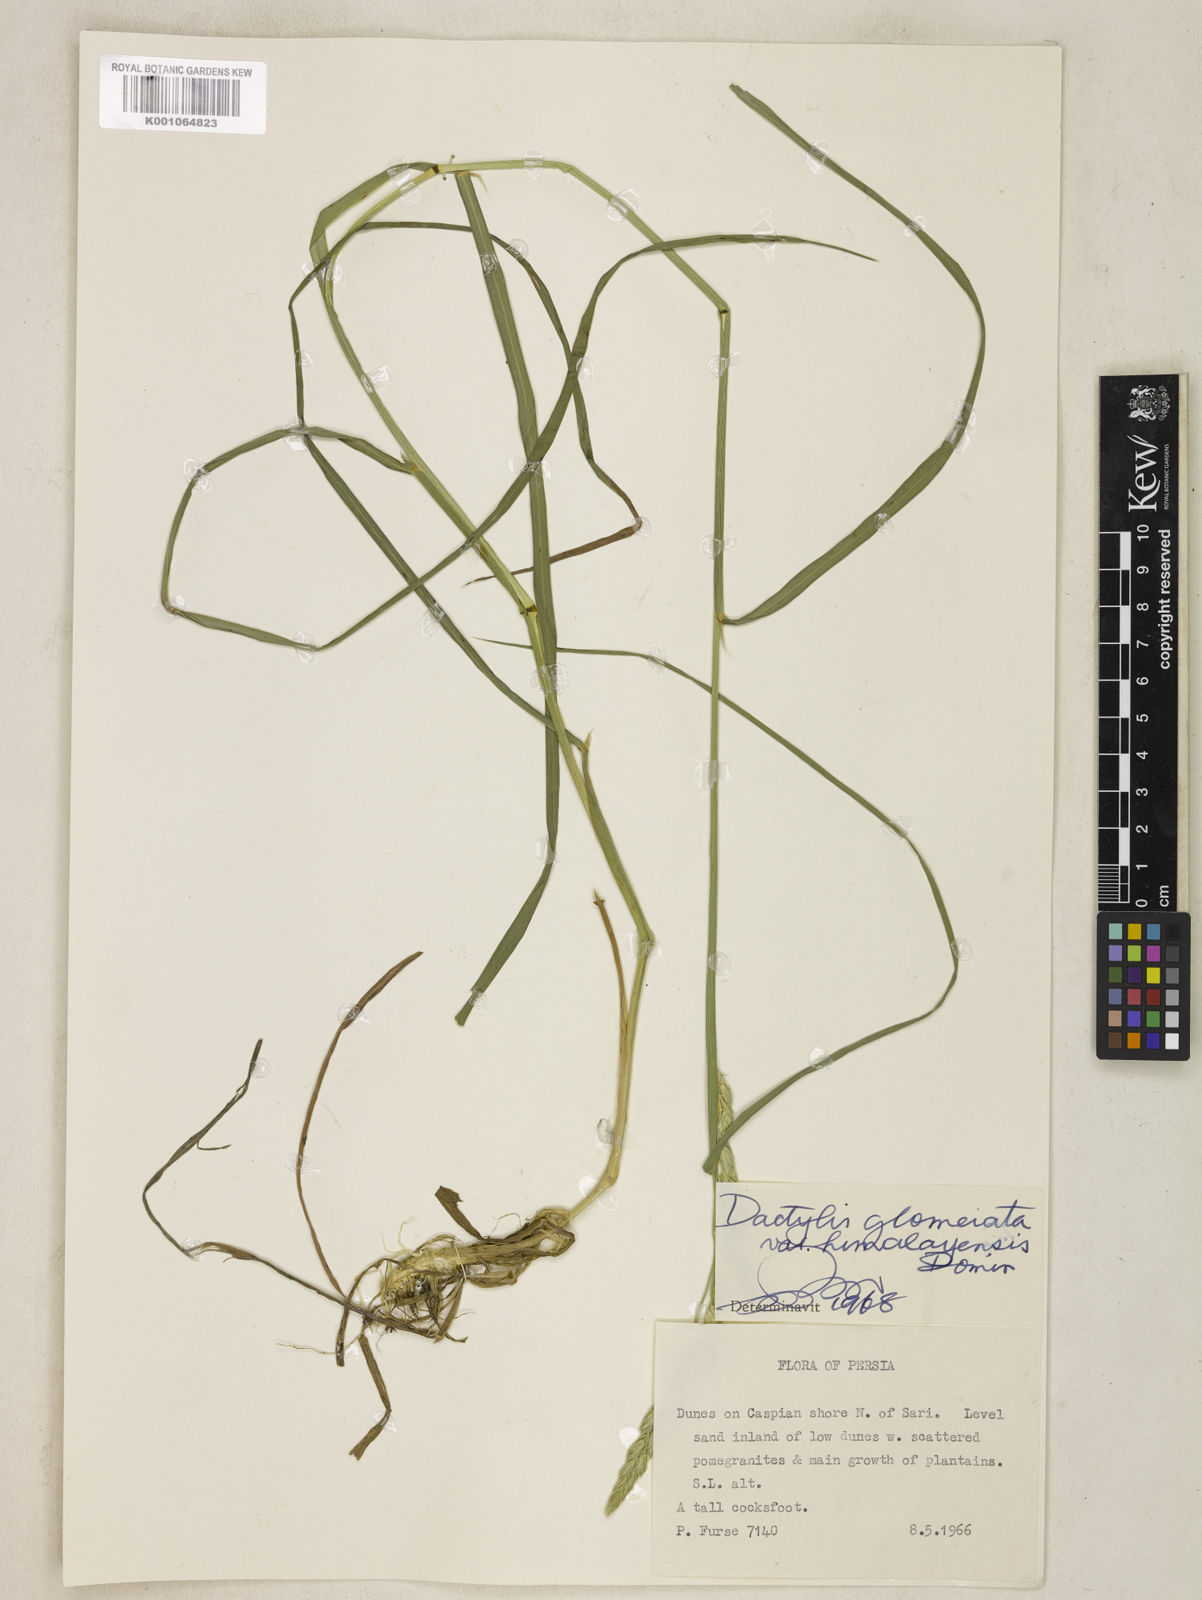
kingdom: Plantae
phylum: Tracheophyta
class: Liliopsida
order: Poales
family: Poaceae
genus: Dactylis
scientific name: Dactylis glomerata
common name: Orchardgrass
